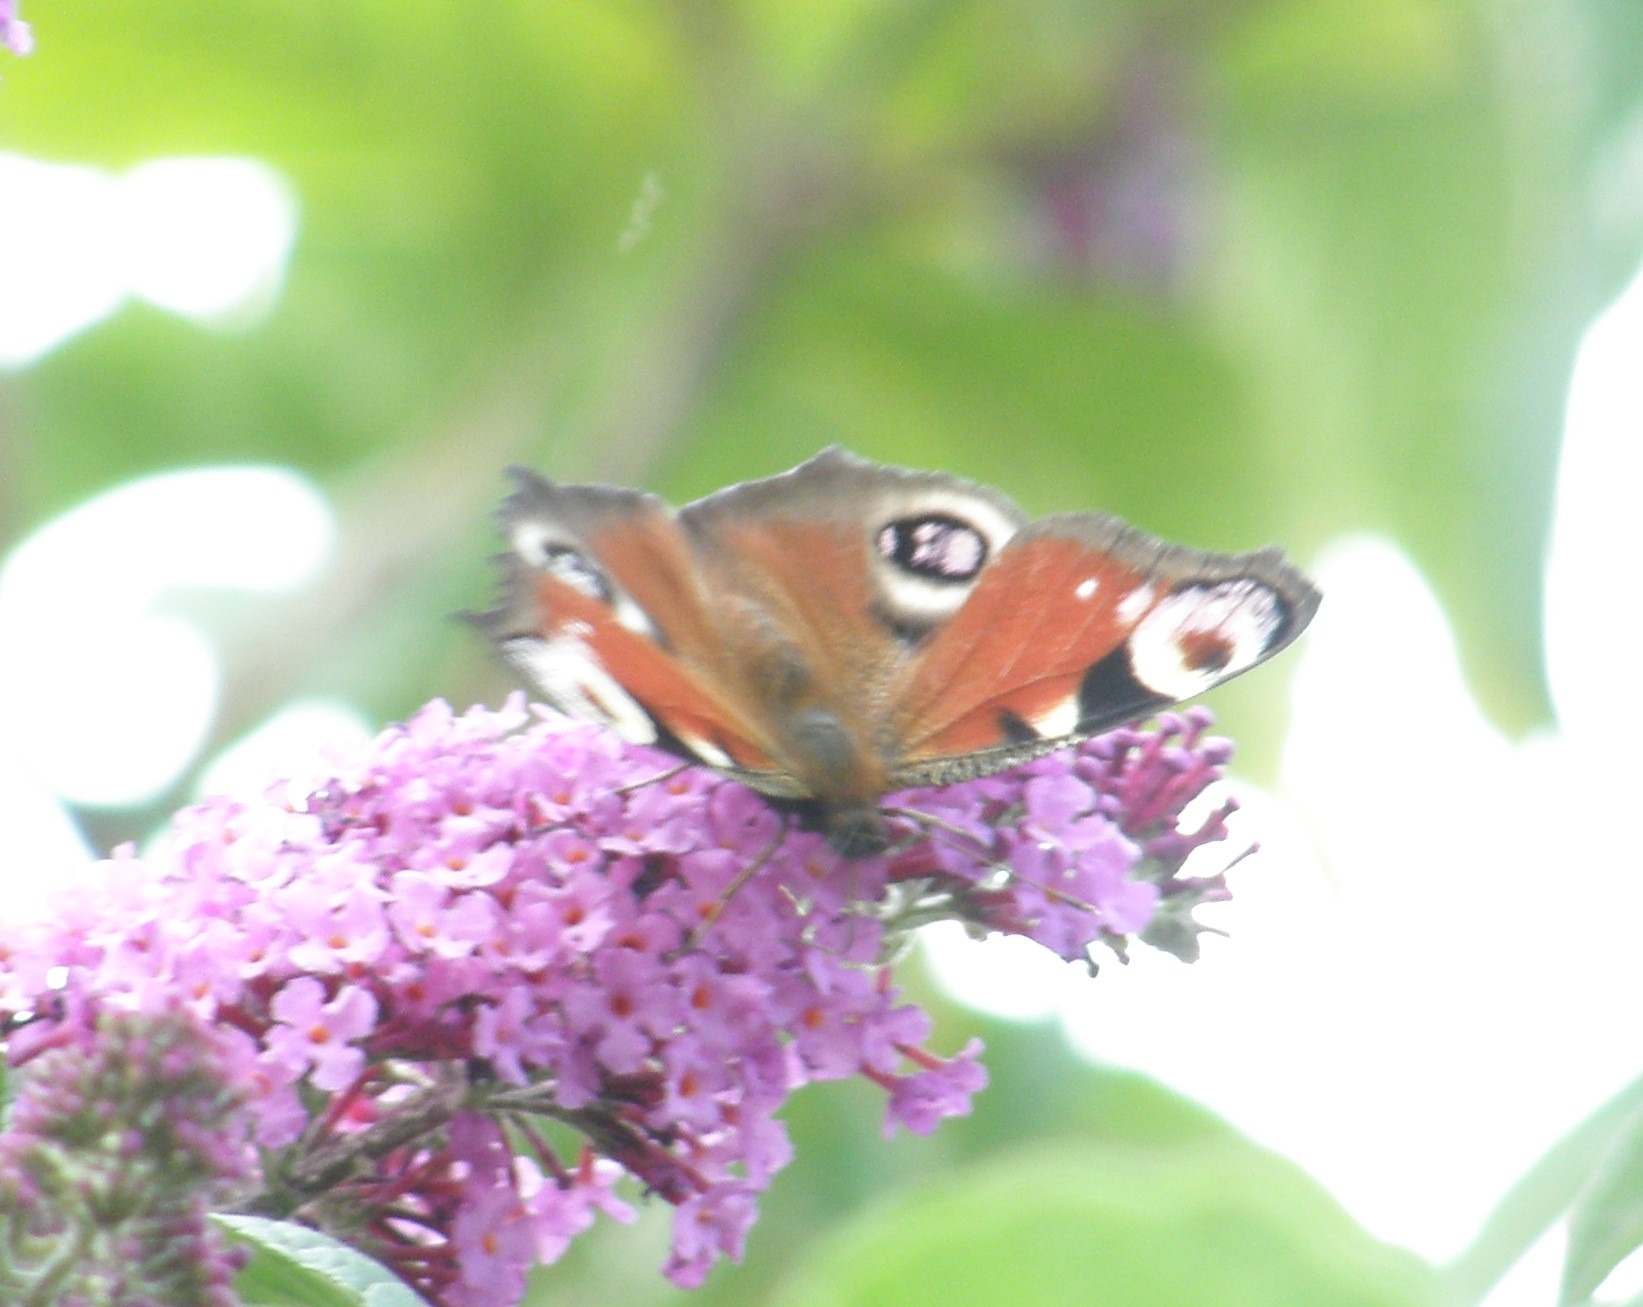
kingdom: Animalia
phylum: Arthropoda
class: Insecta
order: Lepidoptera
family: Nymphalidae
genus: Aglais
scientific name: Aglais io
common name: Dagpåfugleøje
